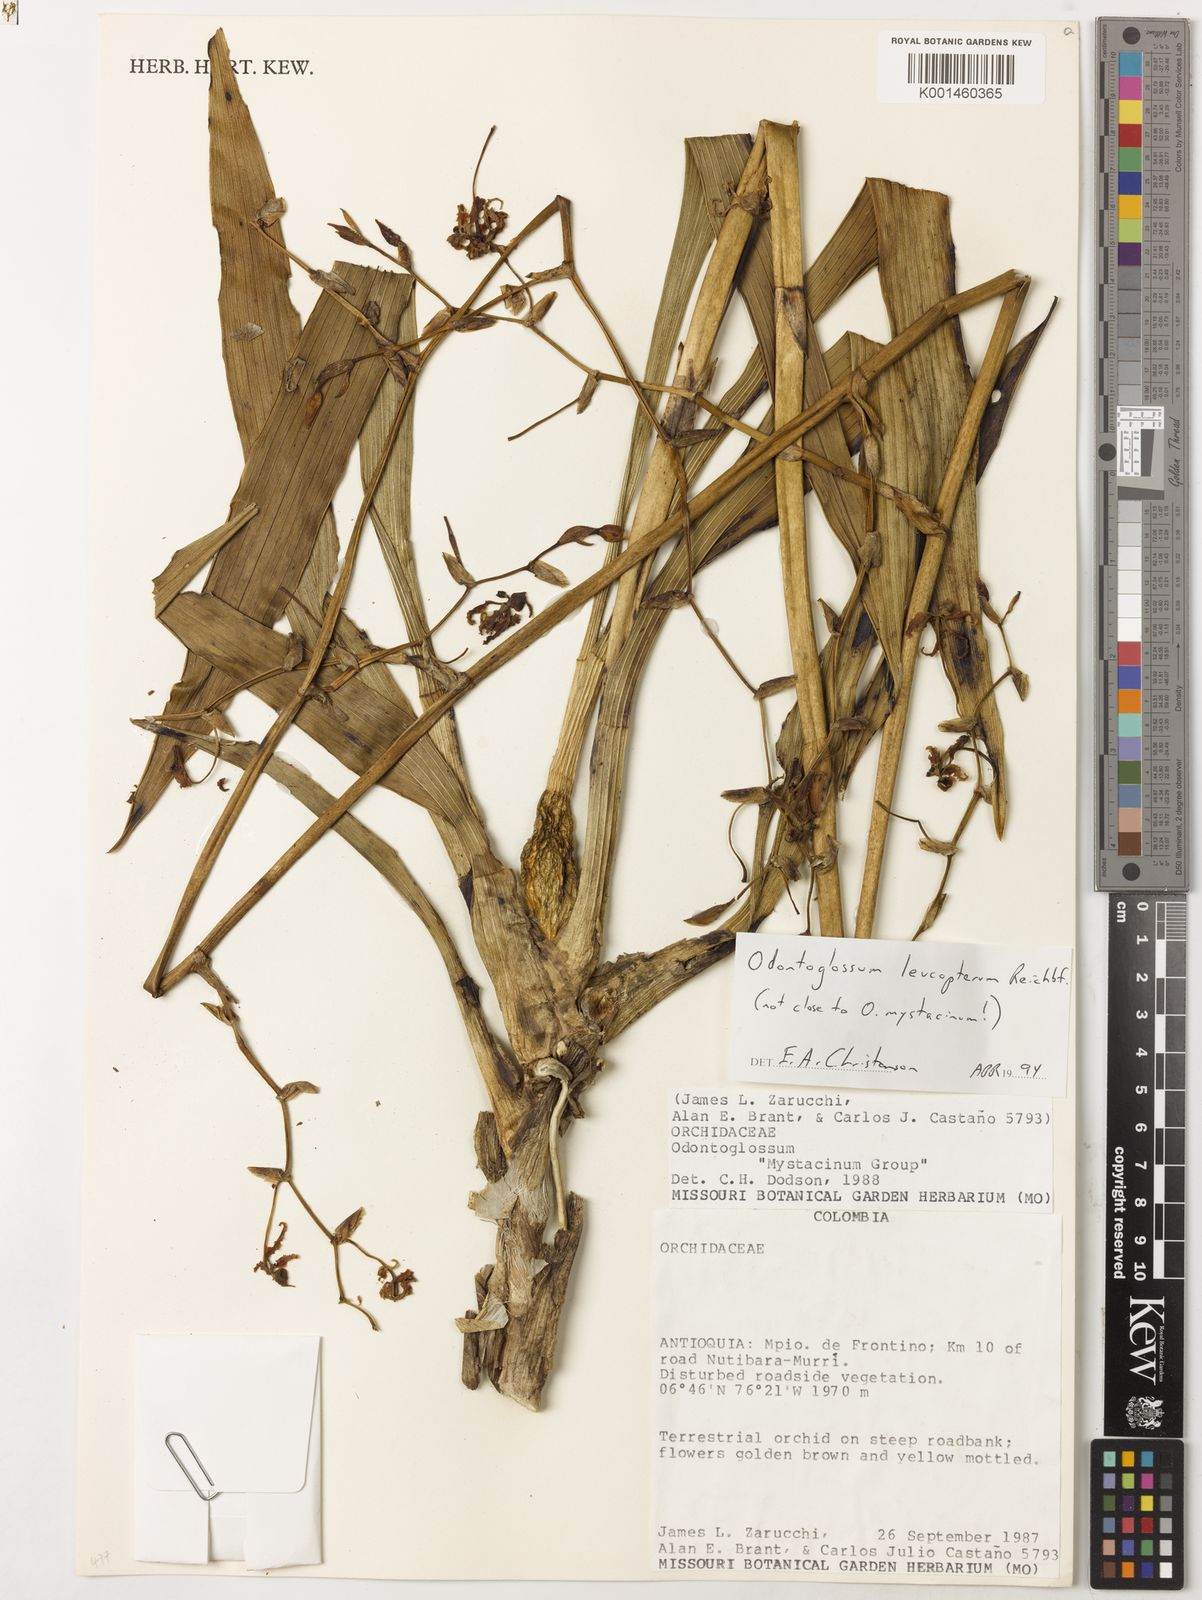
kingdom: Plantae
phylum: Tracheophyta
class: Liliopsida
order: Asparagales
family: Orchidaceae
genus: Cyrtochilum
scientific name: Cyrtochilum
